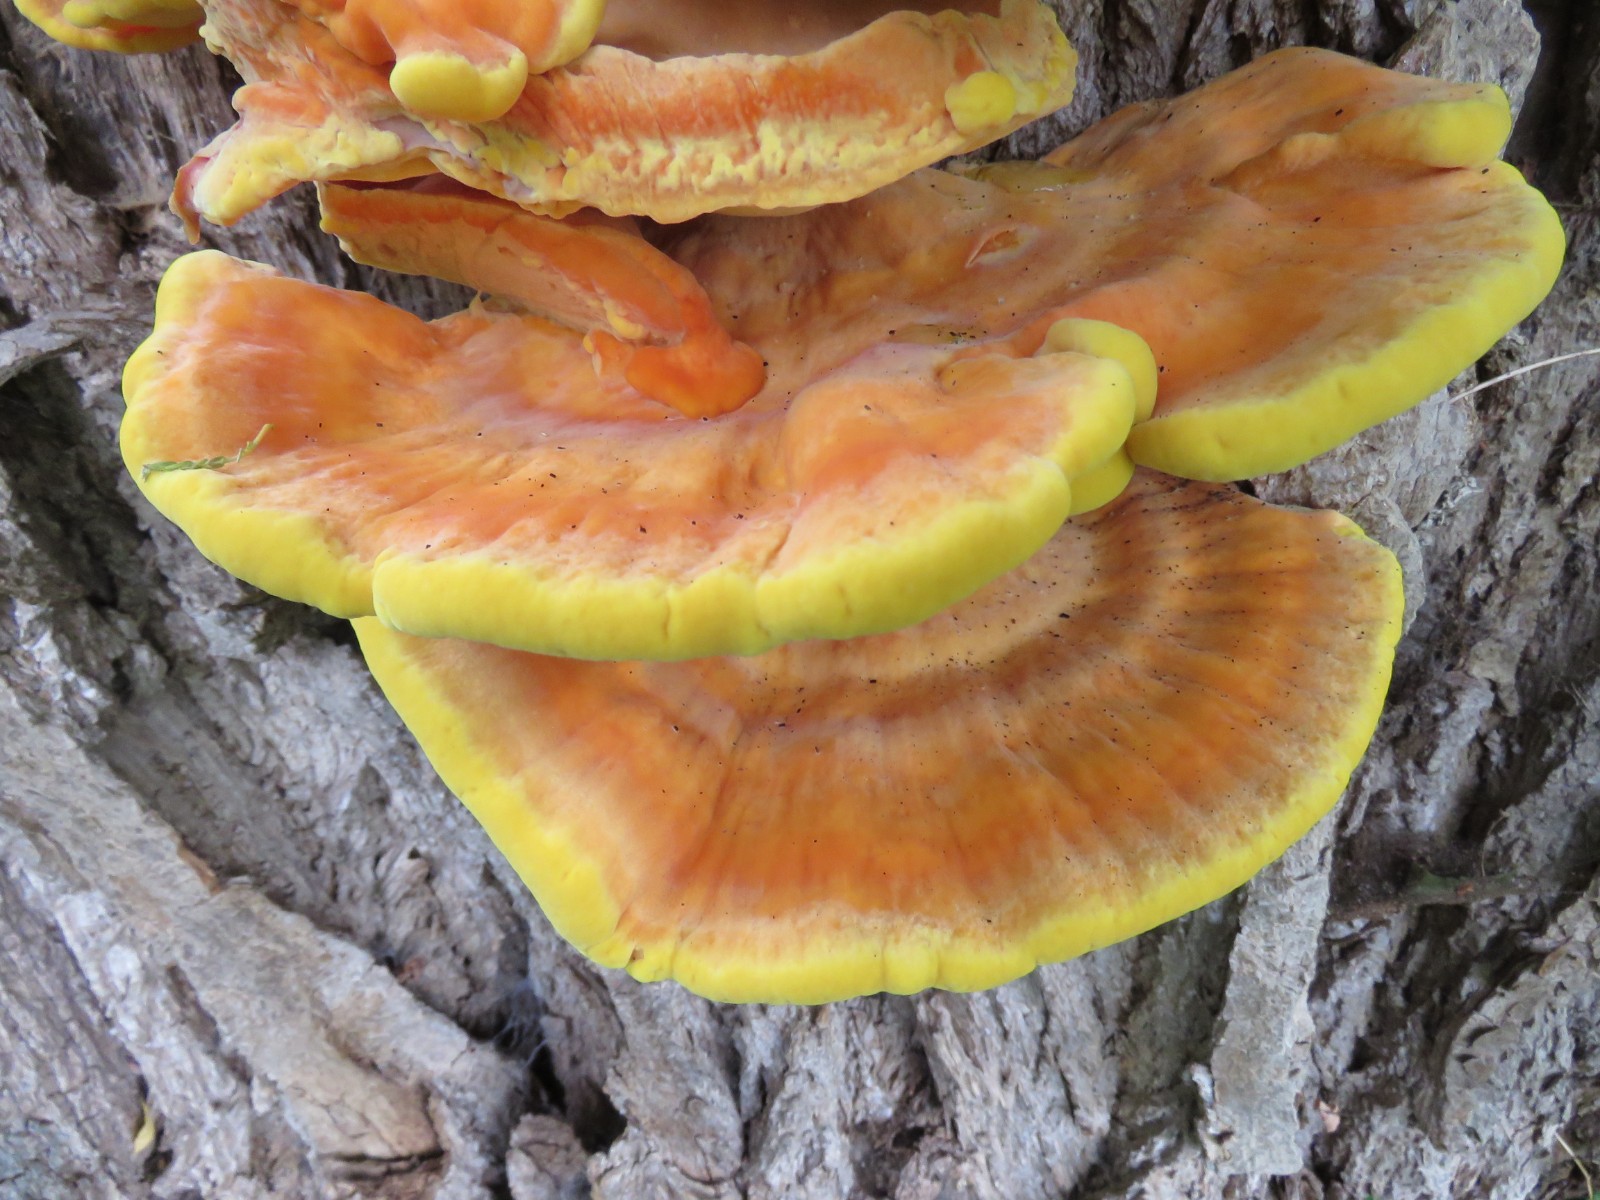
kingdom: Fungi
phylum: Basidiomycota
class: Agaricomycetes
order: Polyporales
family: Laetiporaceae
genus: Laetiporus
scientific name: Laetiporus sulphureus
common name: svovlporesvamp
